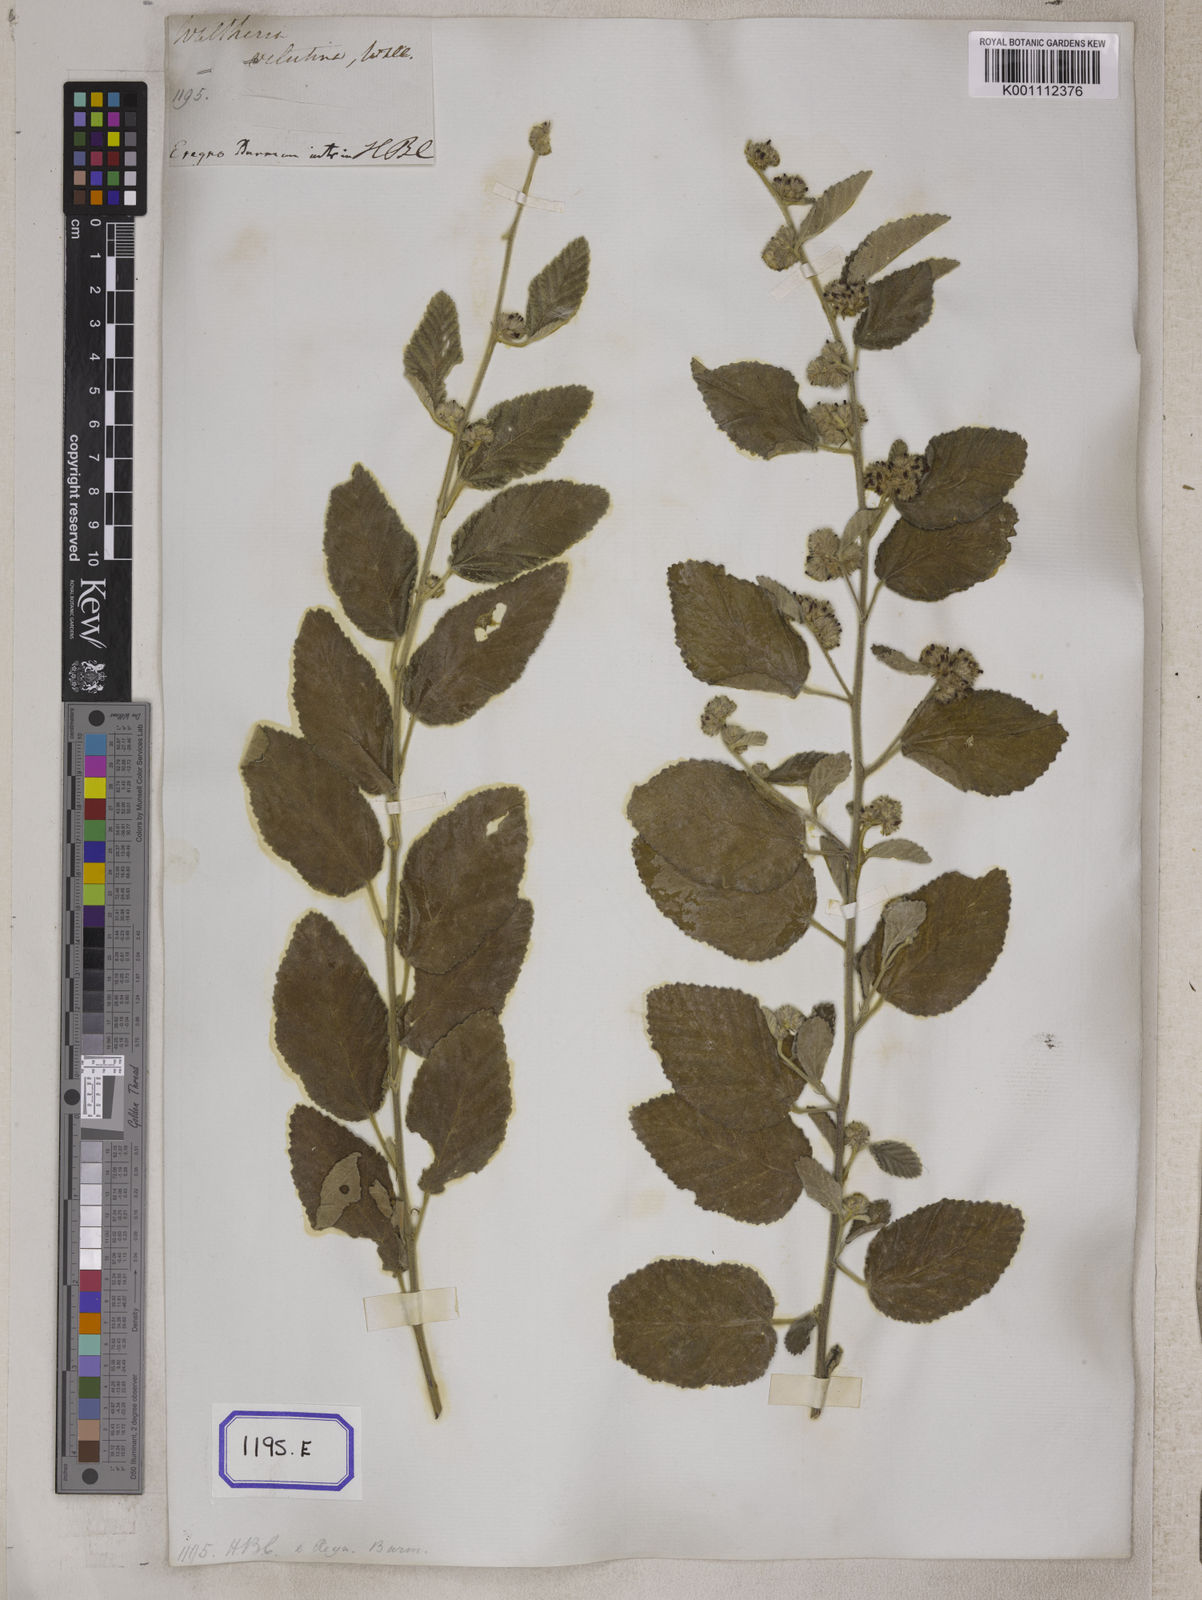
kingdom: Plantae
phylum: Tracheophyta
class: Magnoliopsida
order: Malvales
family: Malvaceae
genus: Waltheria
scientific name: Waltheria indica
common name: Leather-coat
